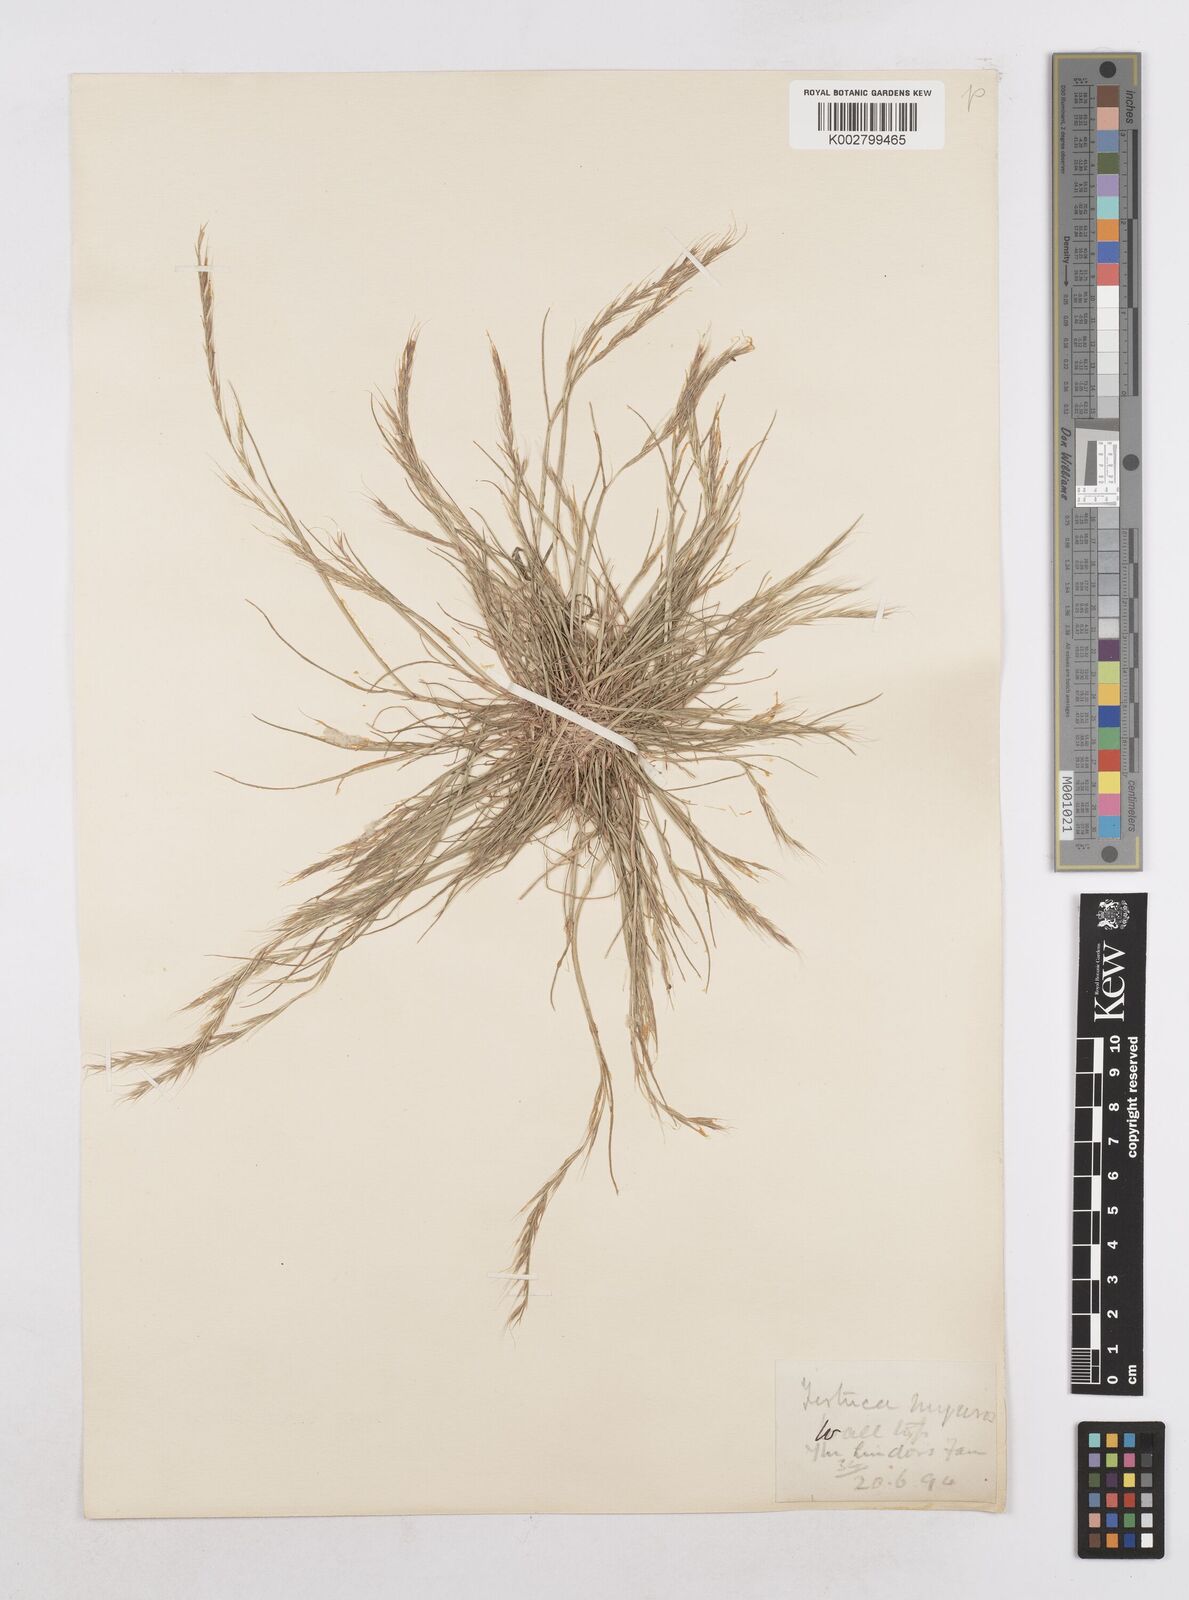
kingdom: Plantae
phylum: Tracheophyta
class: Liliopsida
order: Poales
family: Poaceae
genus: Festuca
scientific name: Festuca myuros
